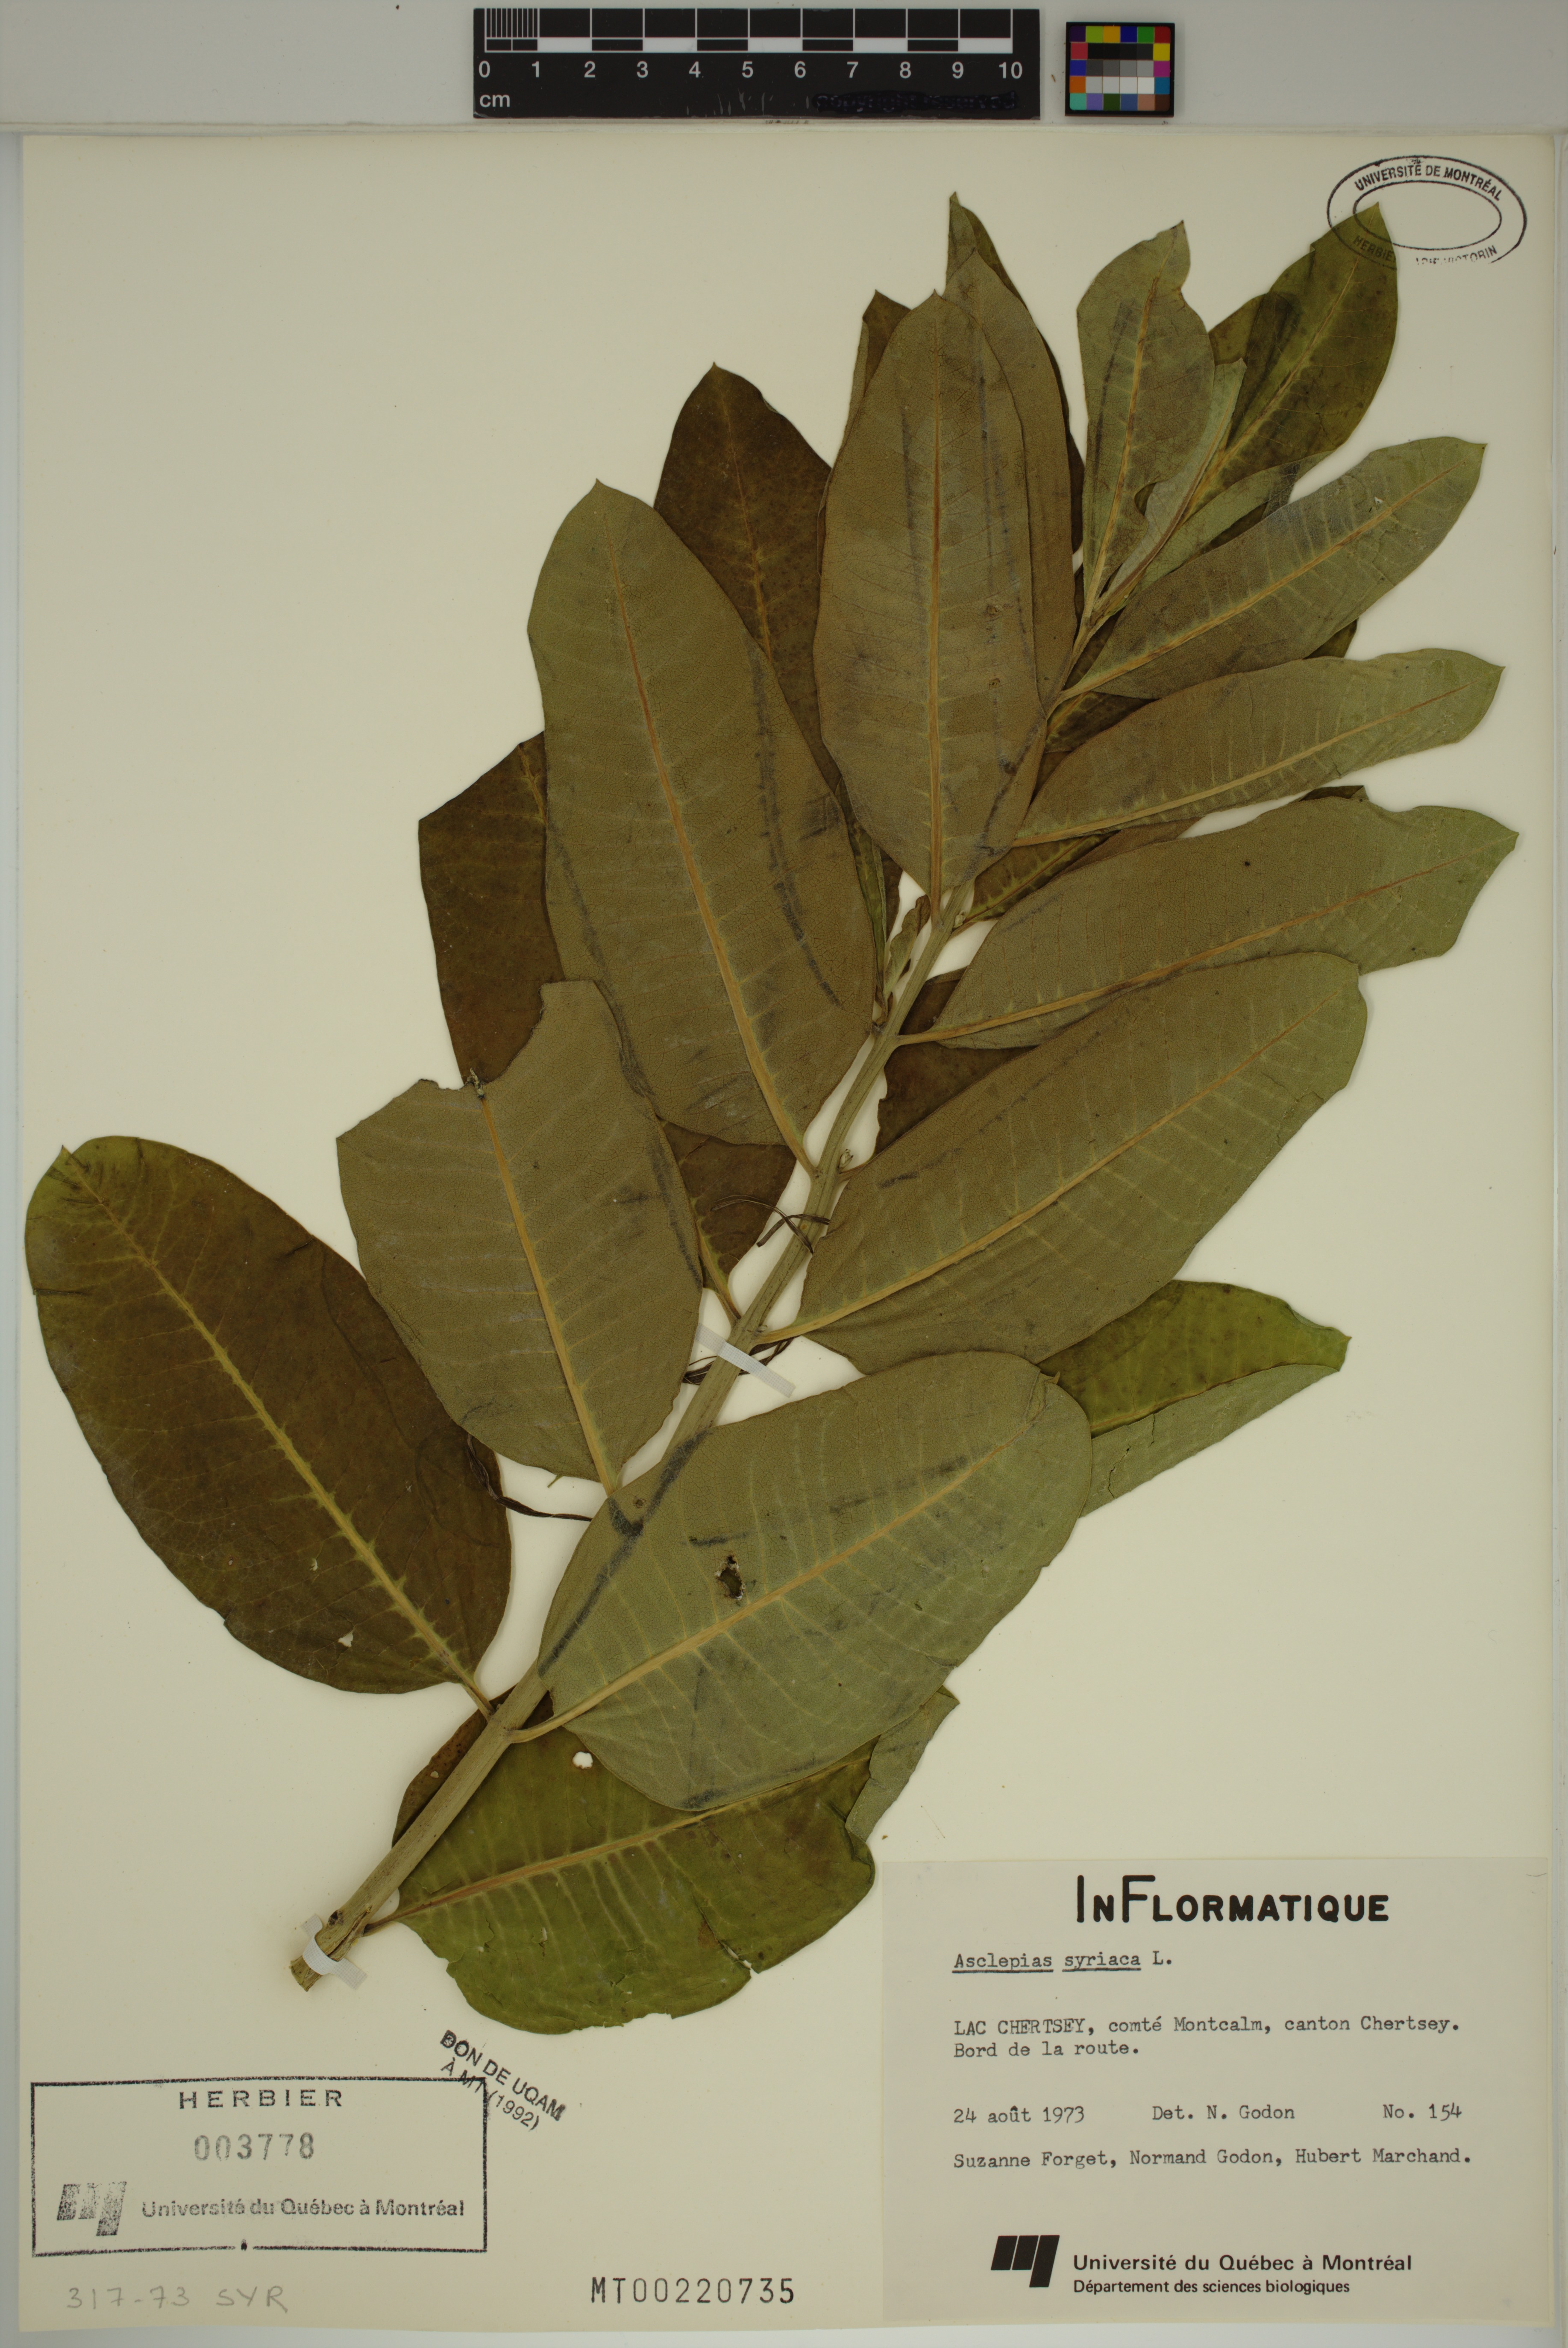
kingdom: Plantae
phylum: Tracheophyta
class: Magnoliopsida
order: Gentianales
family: Apocynaceae
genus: Asclepias
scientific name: Asclepias syriaca
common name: Common milkweed
